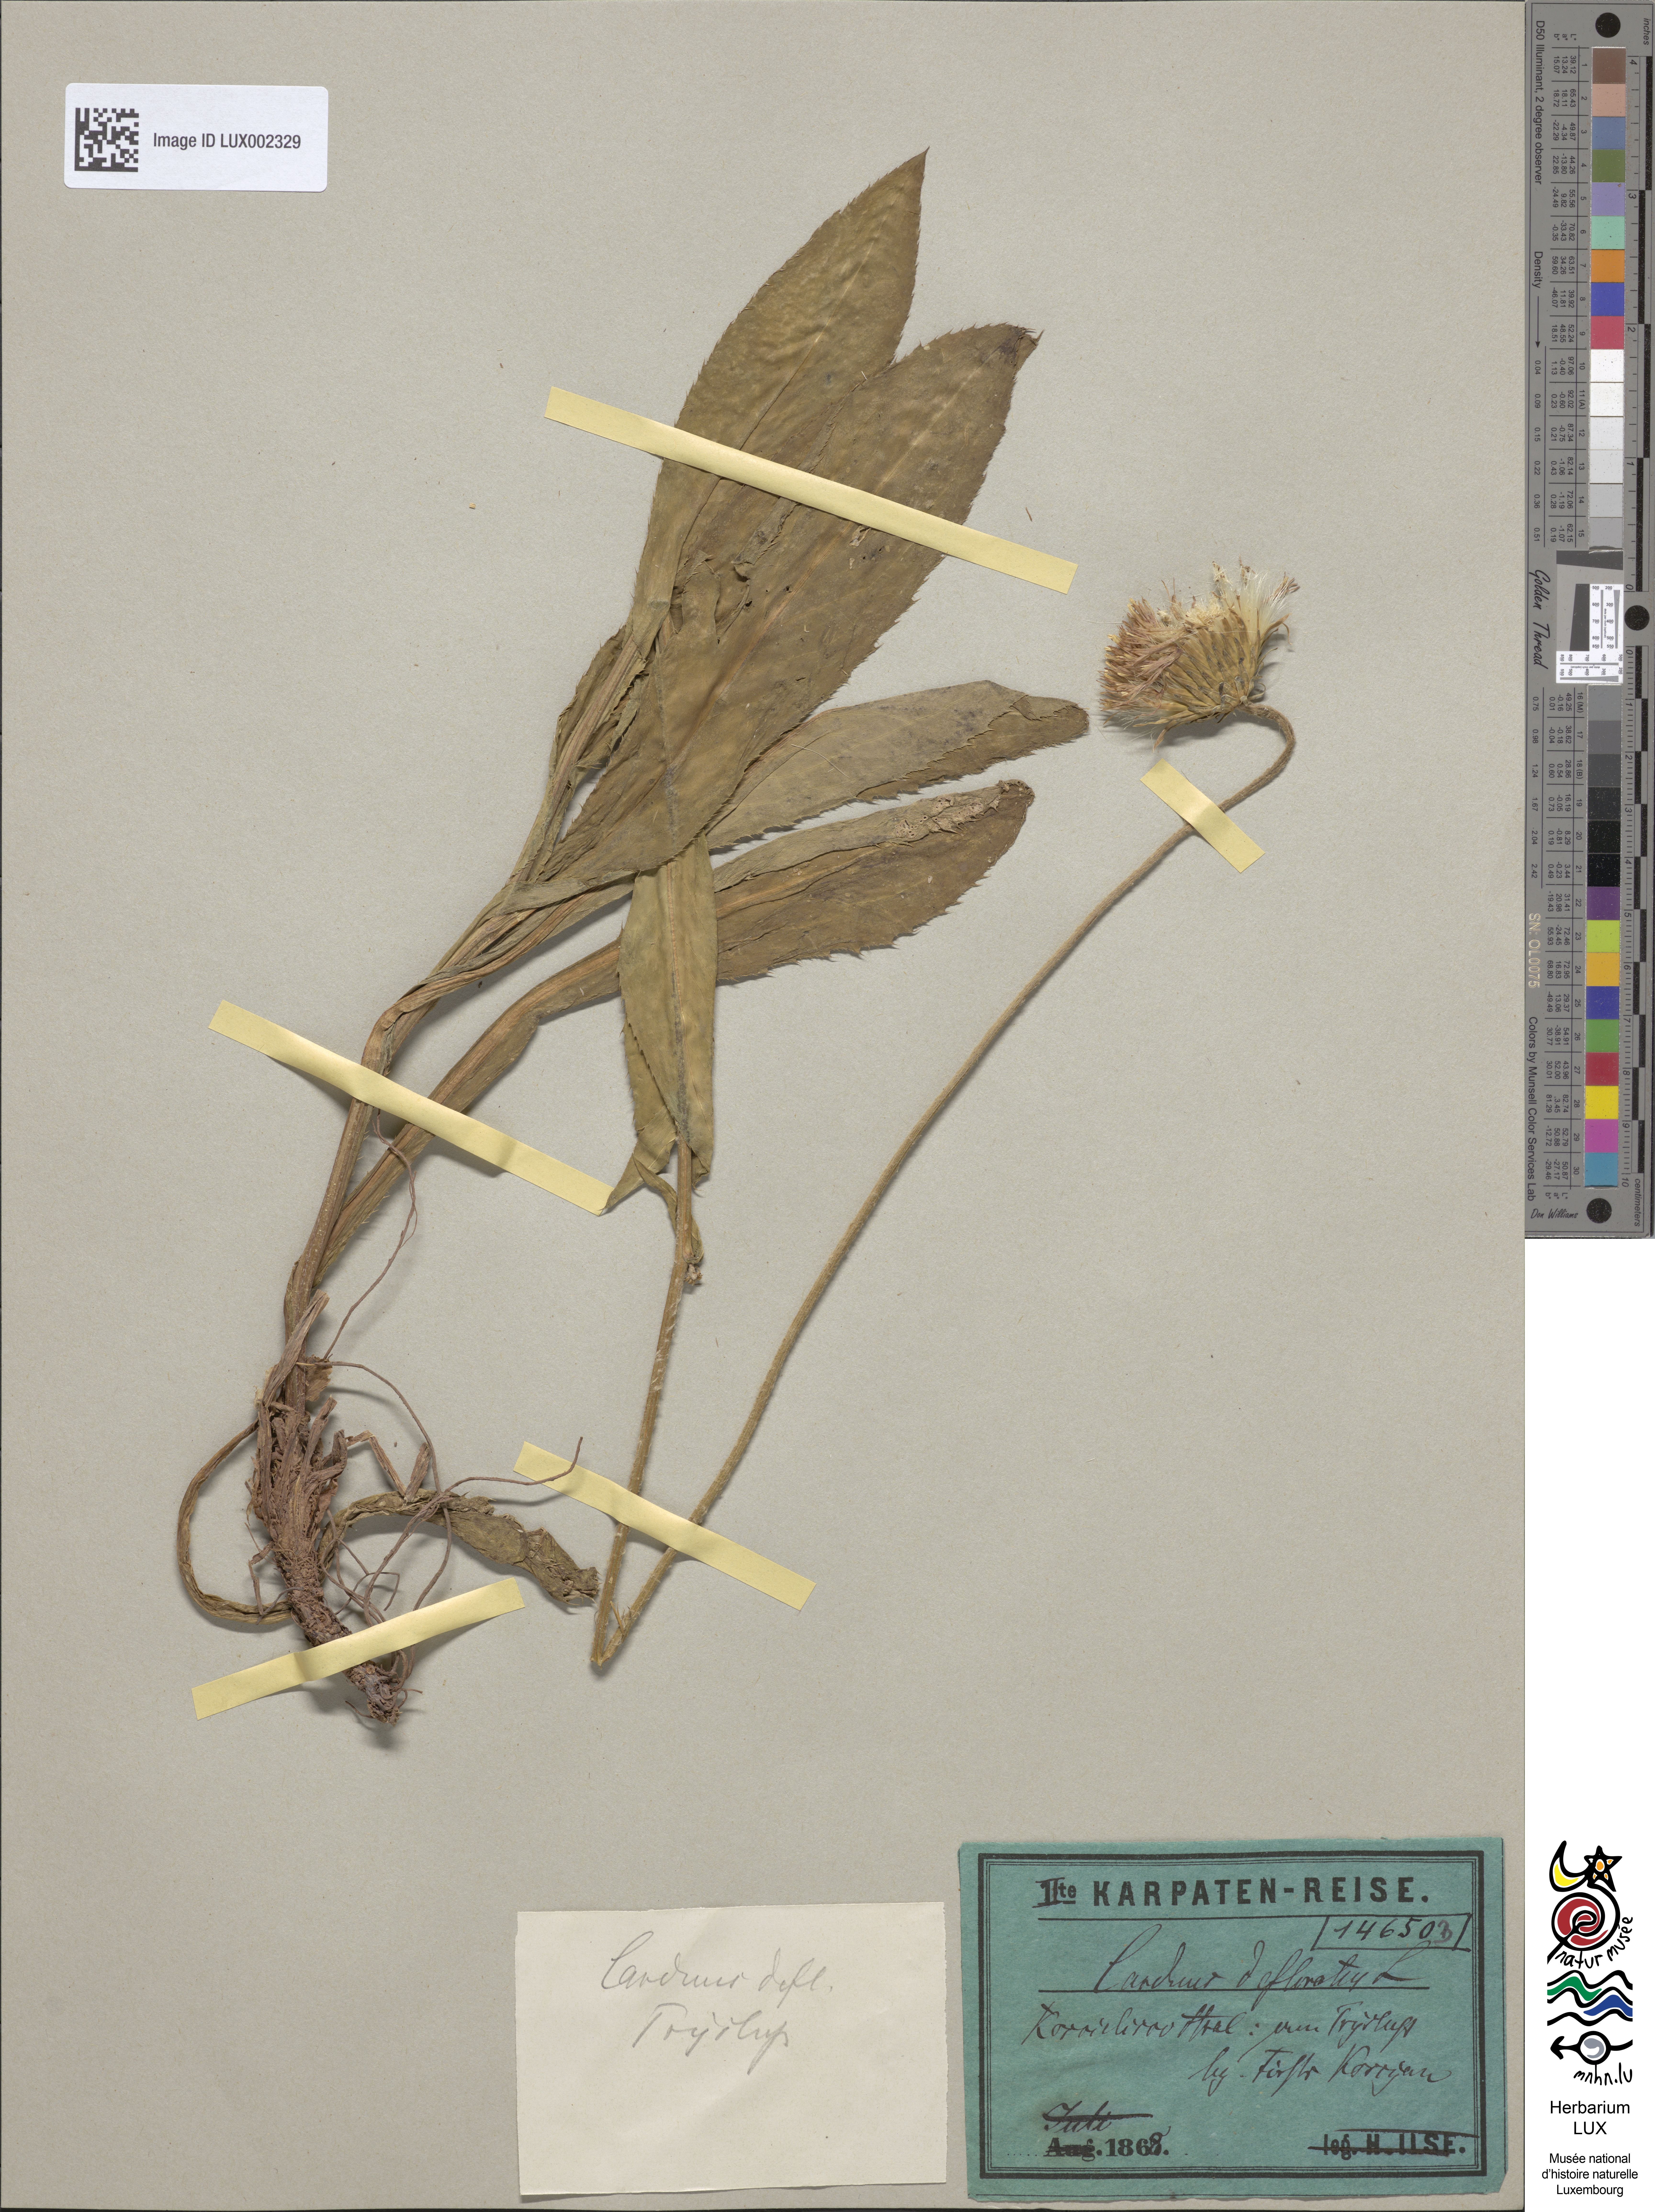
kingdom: Plantae
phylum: Tracheophyta
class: Magnoliopsida
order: Asterales
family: Asteraceae
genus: Carduus
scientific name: Carduus defloratus
